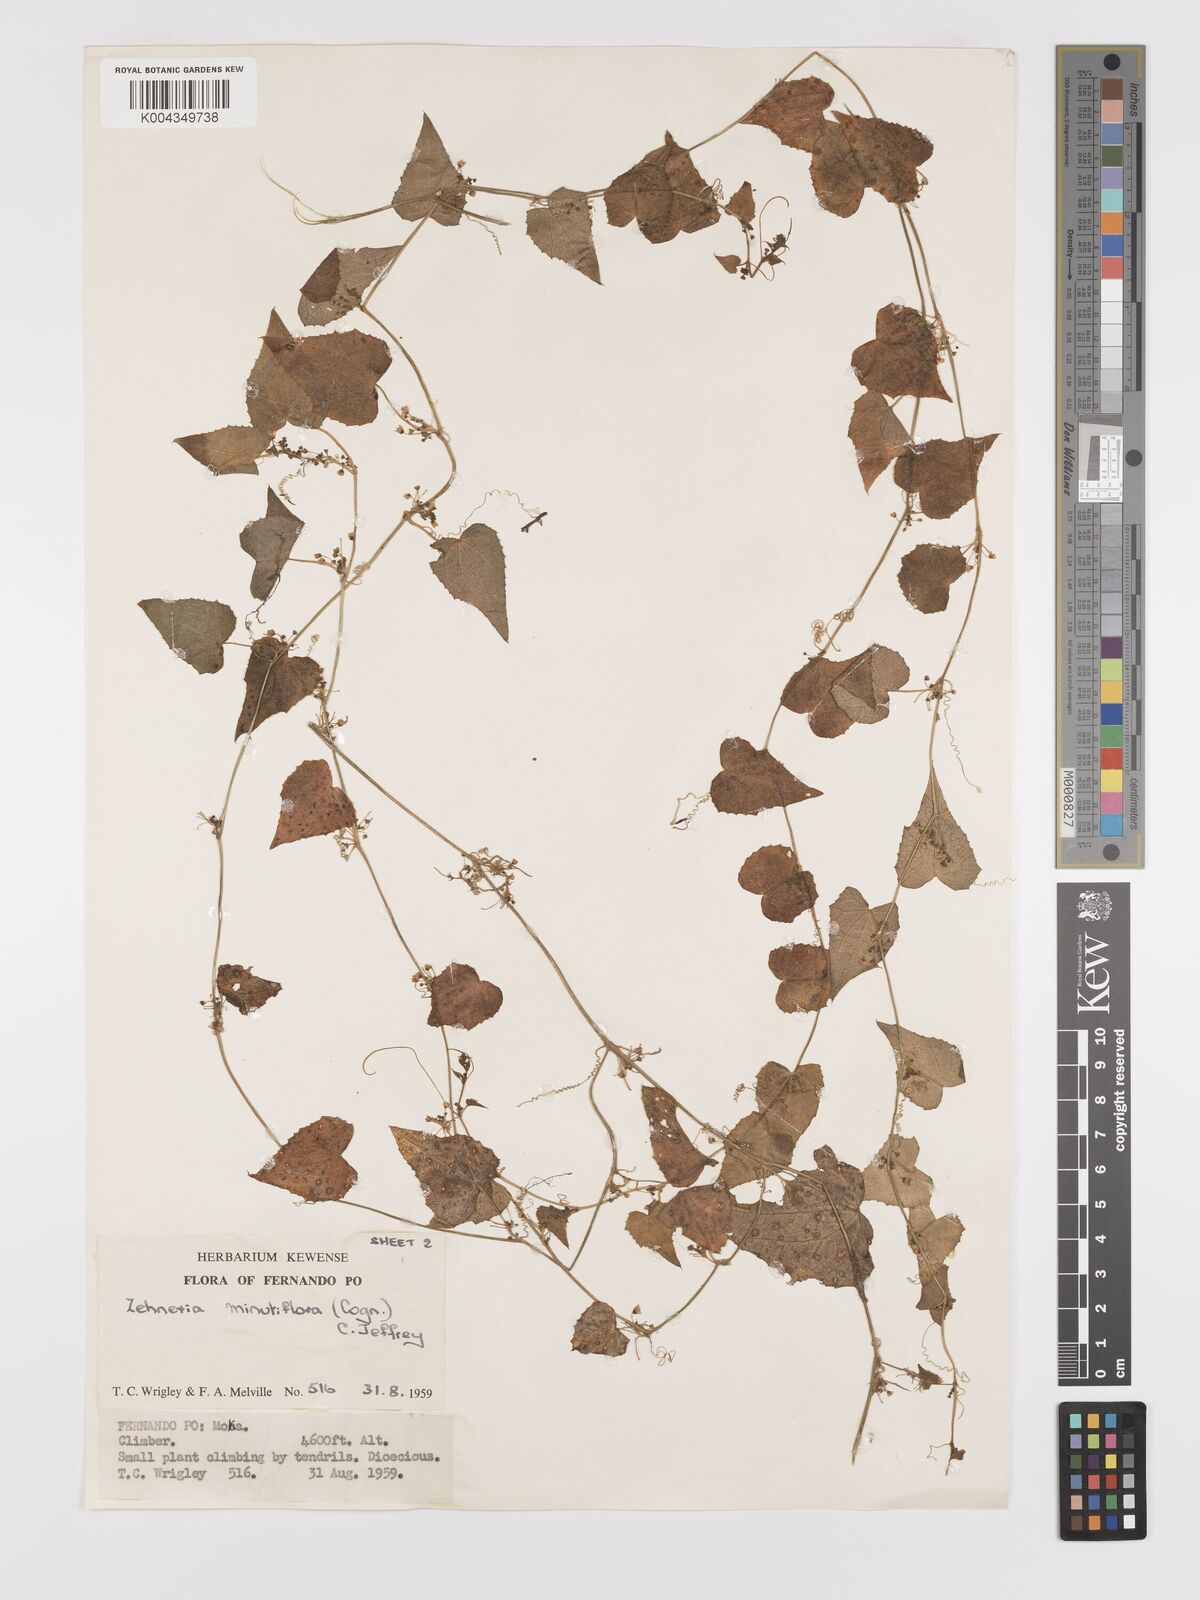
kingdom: Plantae
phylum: Tracheophyta
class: Magnoliopsida
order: Cucurbitales
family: Cucurbitaceae
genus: Zehneria
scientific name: Zehneria minutiflora
